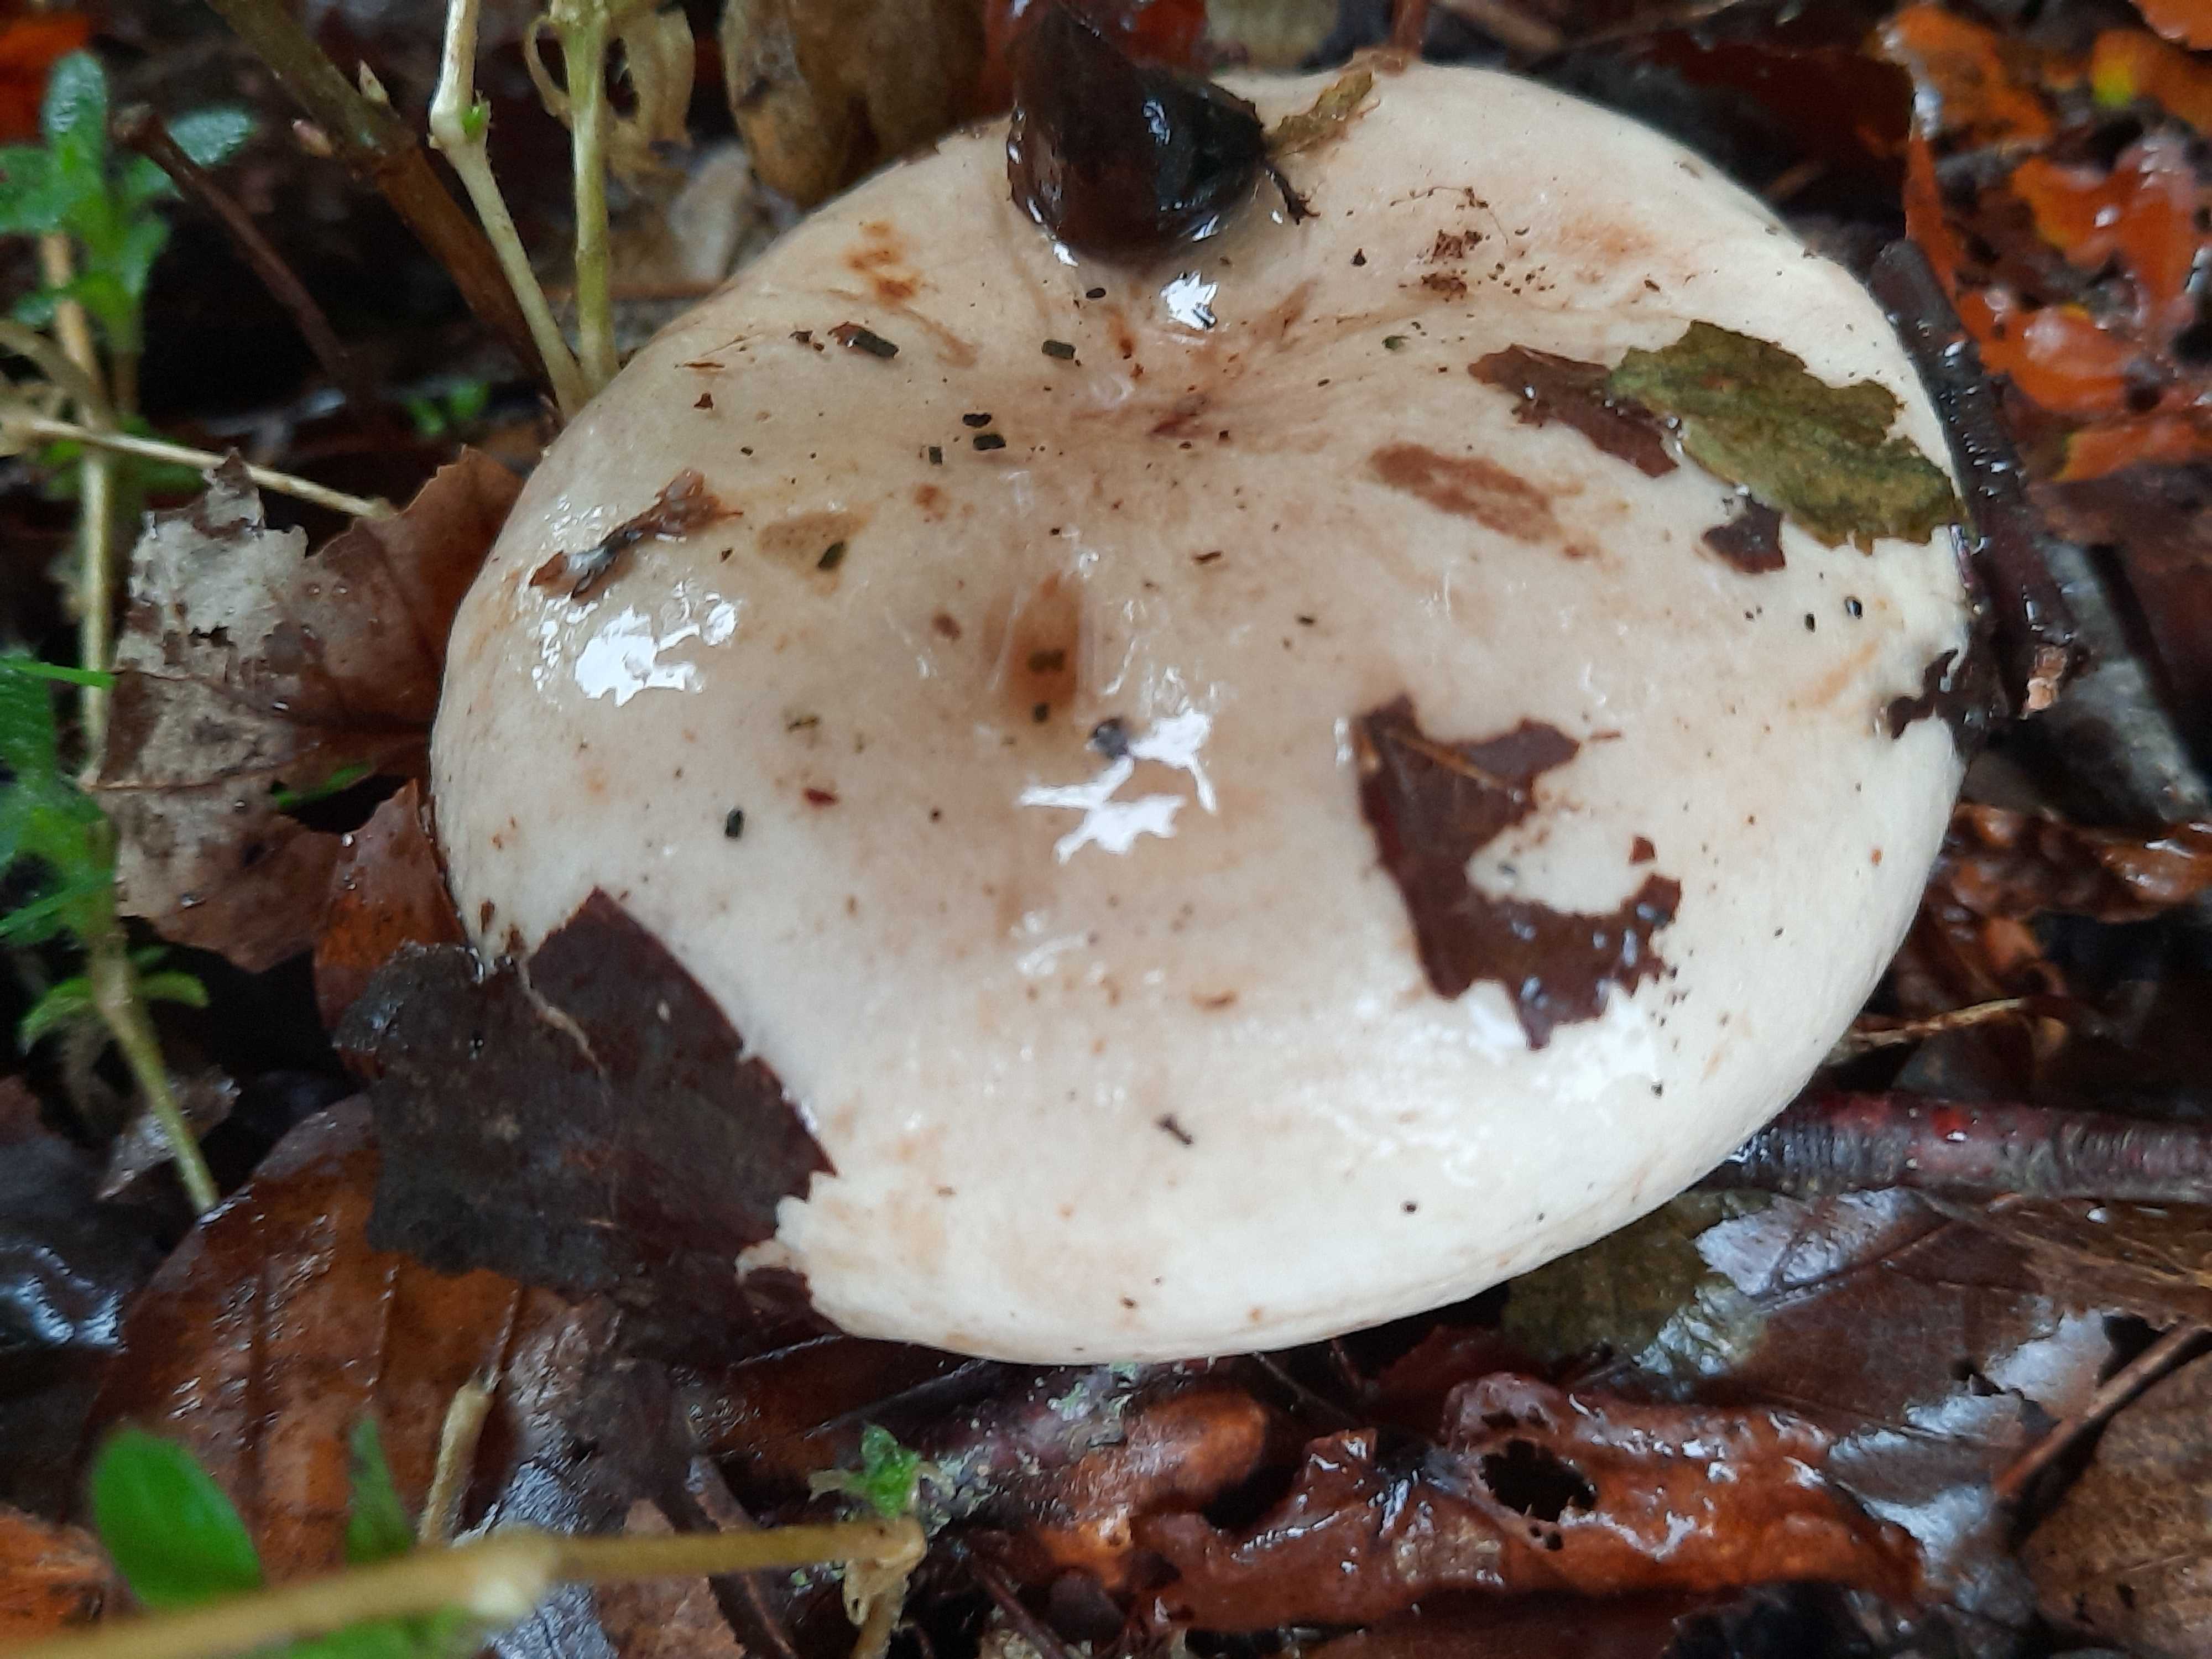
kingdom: Fungi
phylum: Basidiomycota
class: Agaricomycetes
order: Russulales
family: Russulaceae
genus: Lactarius
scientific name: Lactarius pallidus
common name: bleg mælkehat
